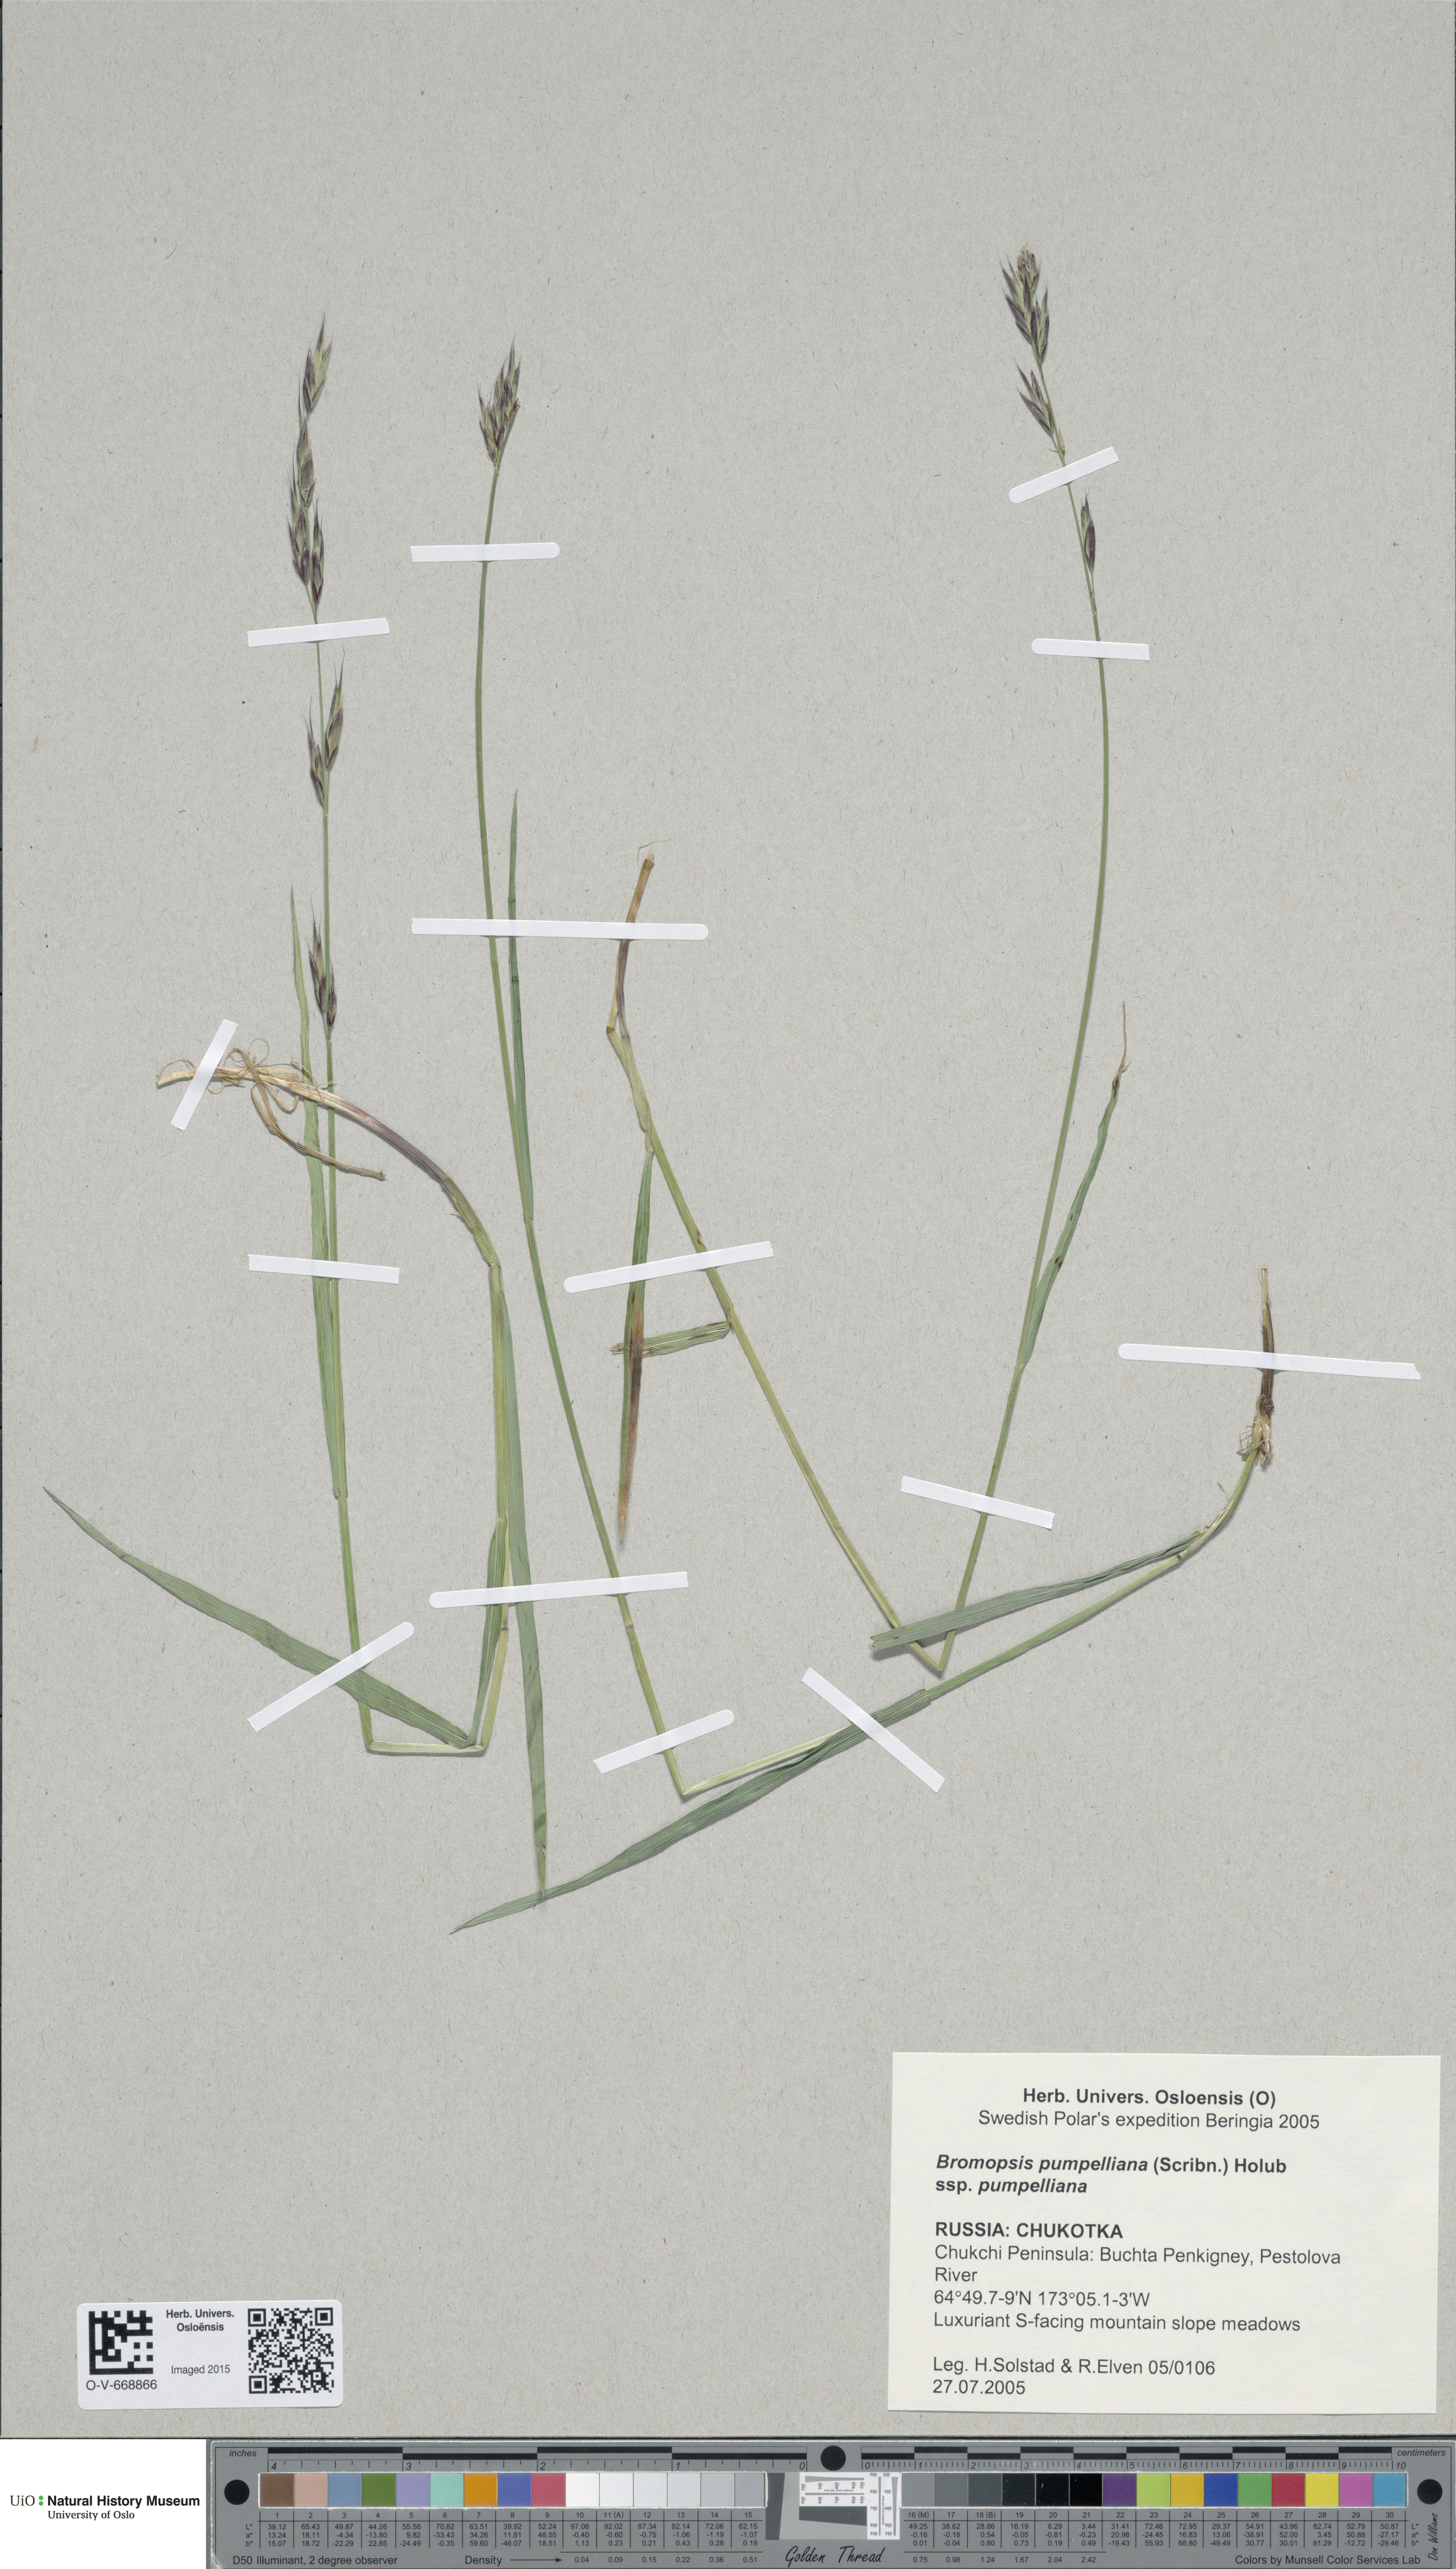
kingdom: Plantae
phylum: Tracheophyta
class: Liliopsida
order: Poales
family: Poaceae
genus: Bromus
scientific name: Bromus pumpellianus
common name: Pumpelly's brome
